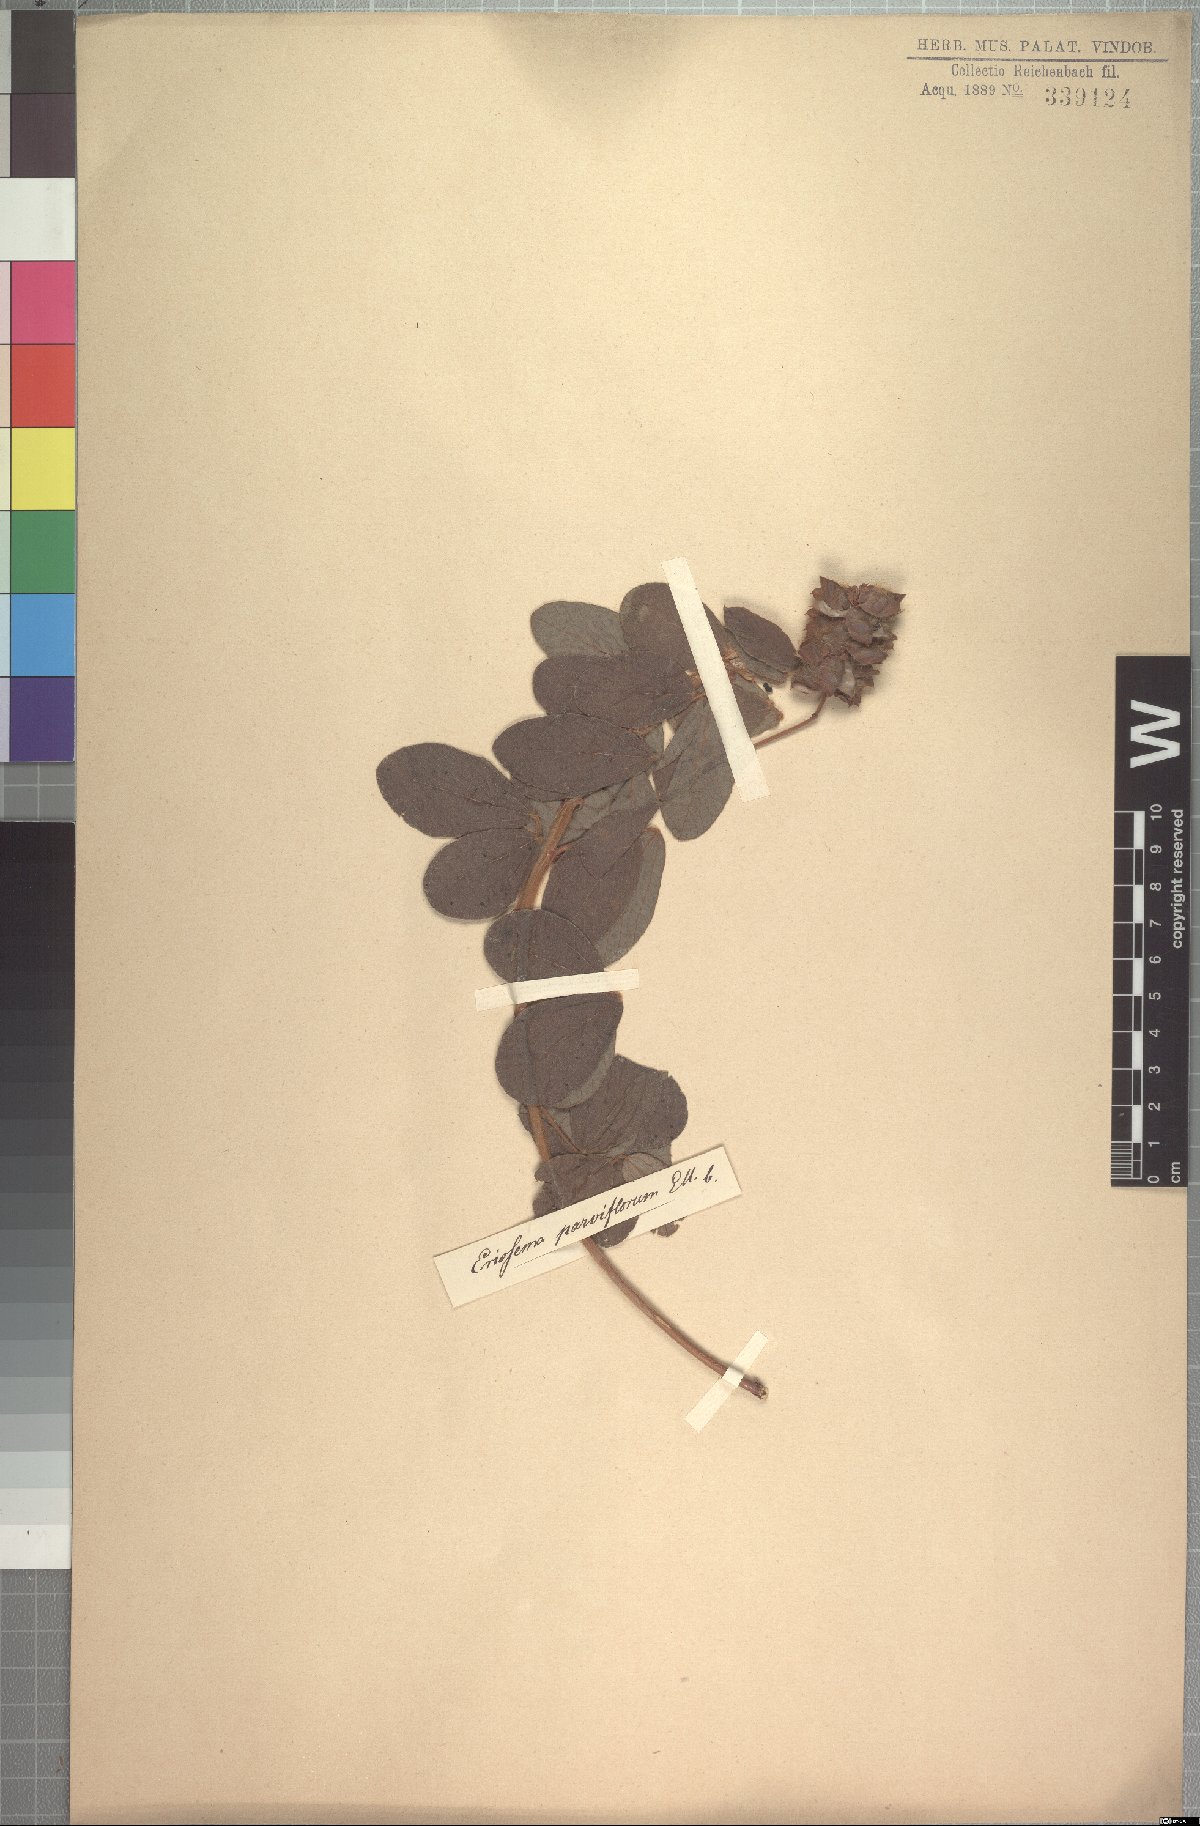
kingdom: Plantae
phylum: Tracheophyta
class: Magnoliopsida
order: Fabales
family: Fabaceae
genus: Eriosema
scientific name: Eriosema parviflorum
